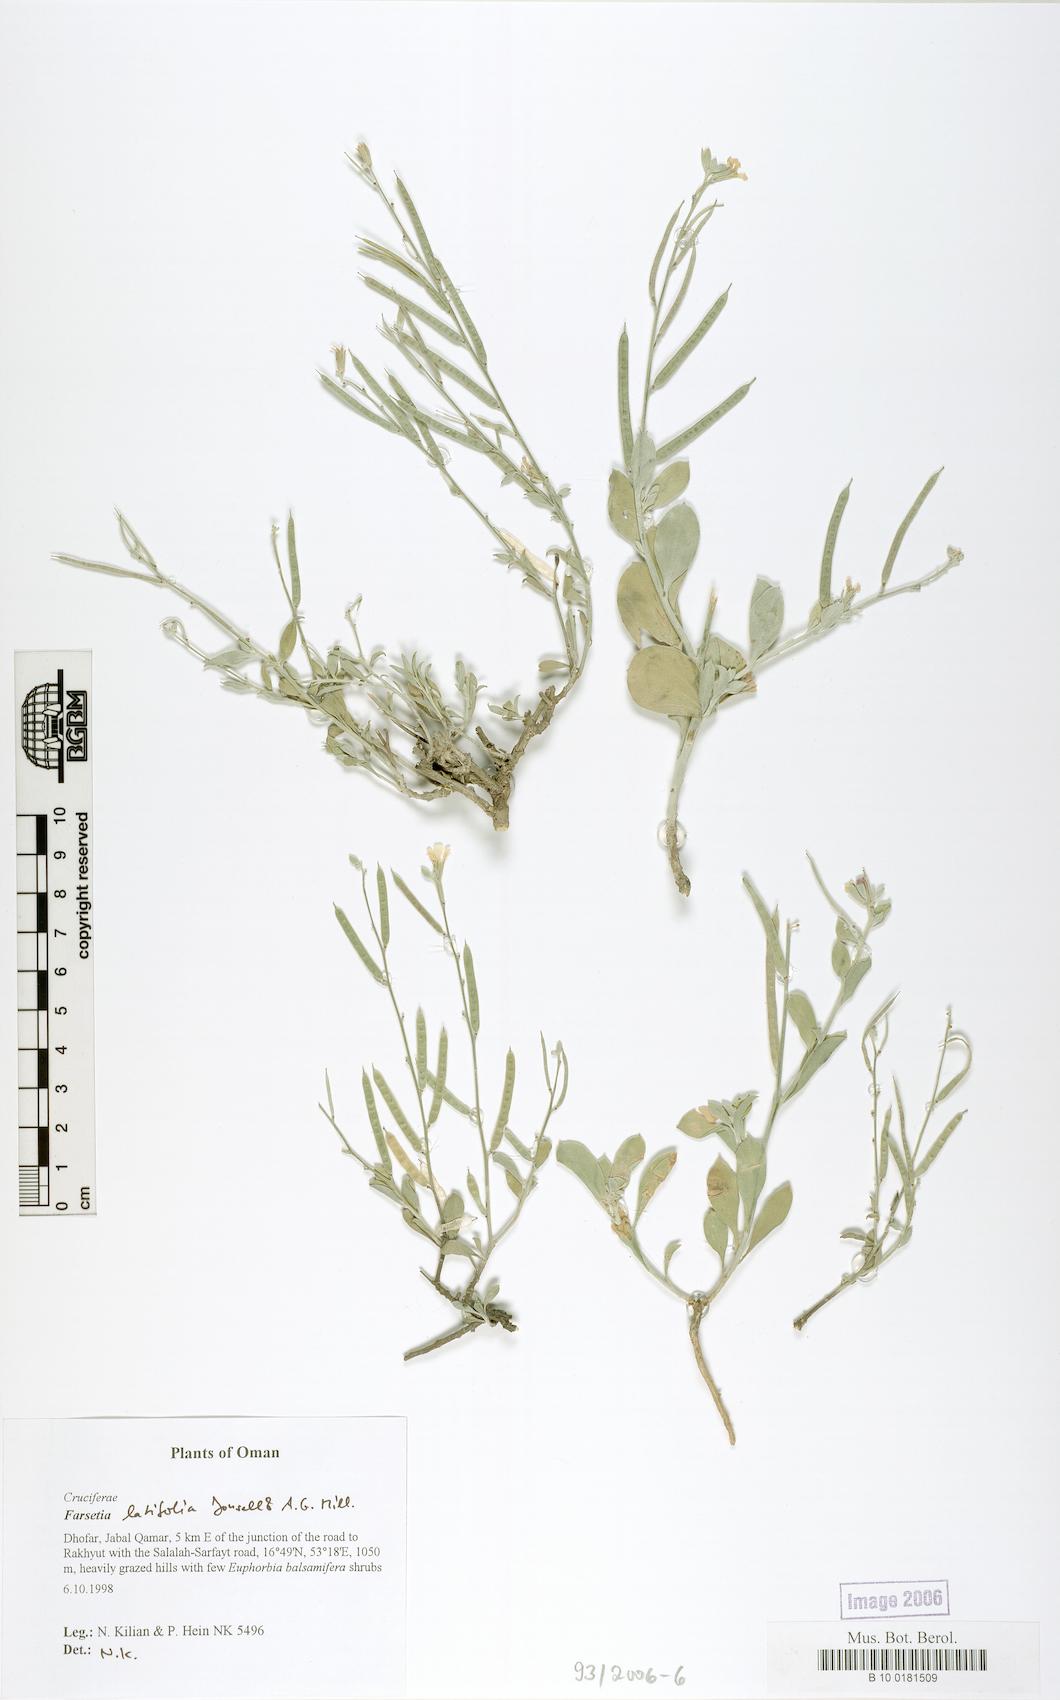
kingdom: Plantae
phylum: Tracheophyta
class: Magnoliopsida
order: Brassicales
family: Brassicaceae
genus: Farsetia
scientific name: Farsetia latifolia
